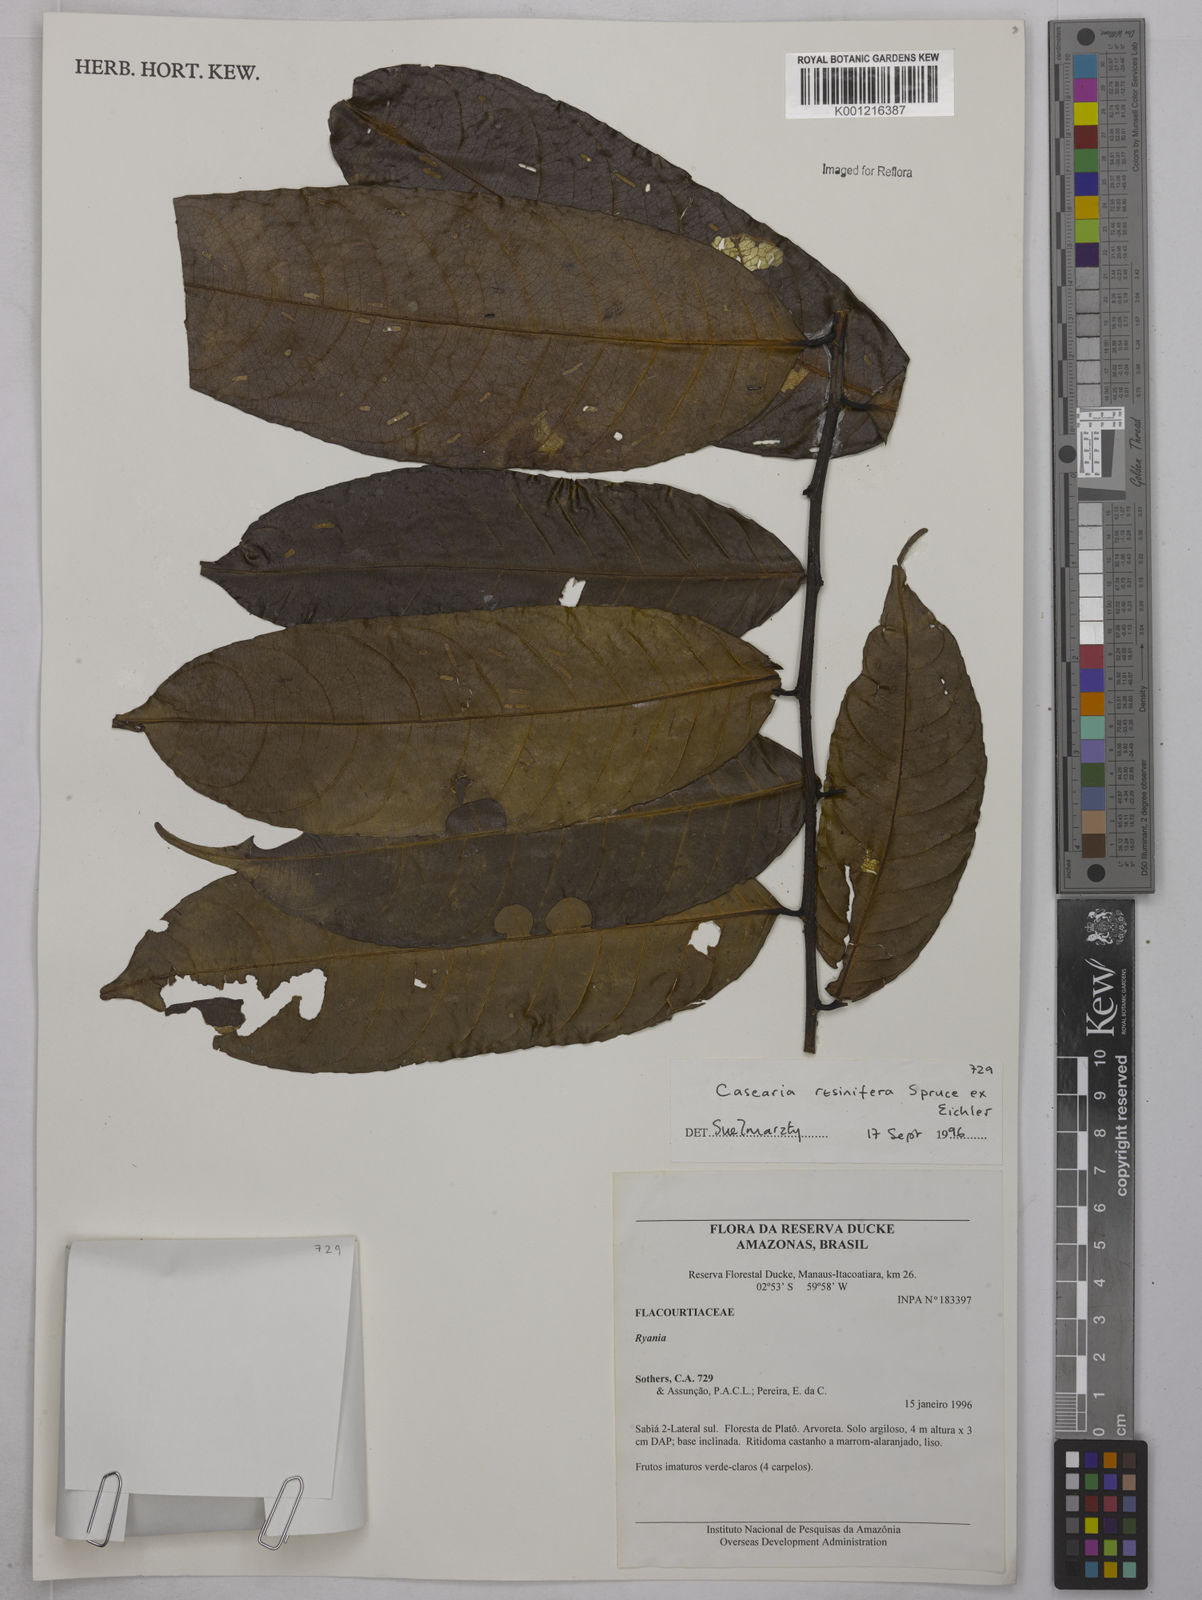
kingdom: Plantae
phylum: Tracheophyta
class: Magnoliopsida
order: Malpighiales
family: Salicaceae
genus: Casearia
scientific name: Casearia resinifera
